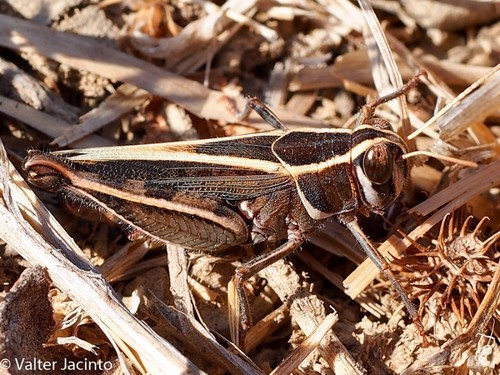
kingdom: Animalia
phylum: Arthropoda
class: Insecta
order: Orthoptera
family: Acrididae
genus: Calliptamus
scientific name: Calliptamus barbarus
